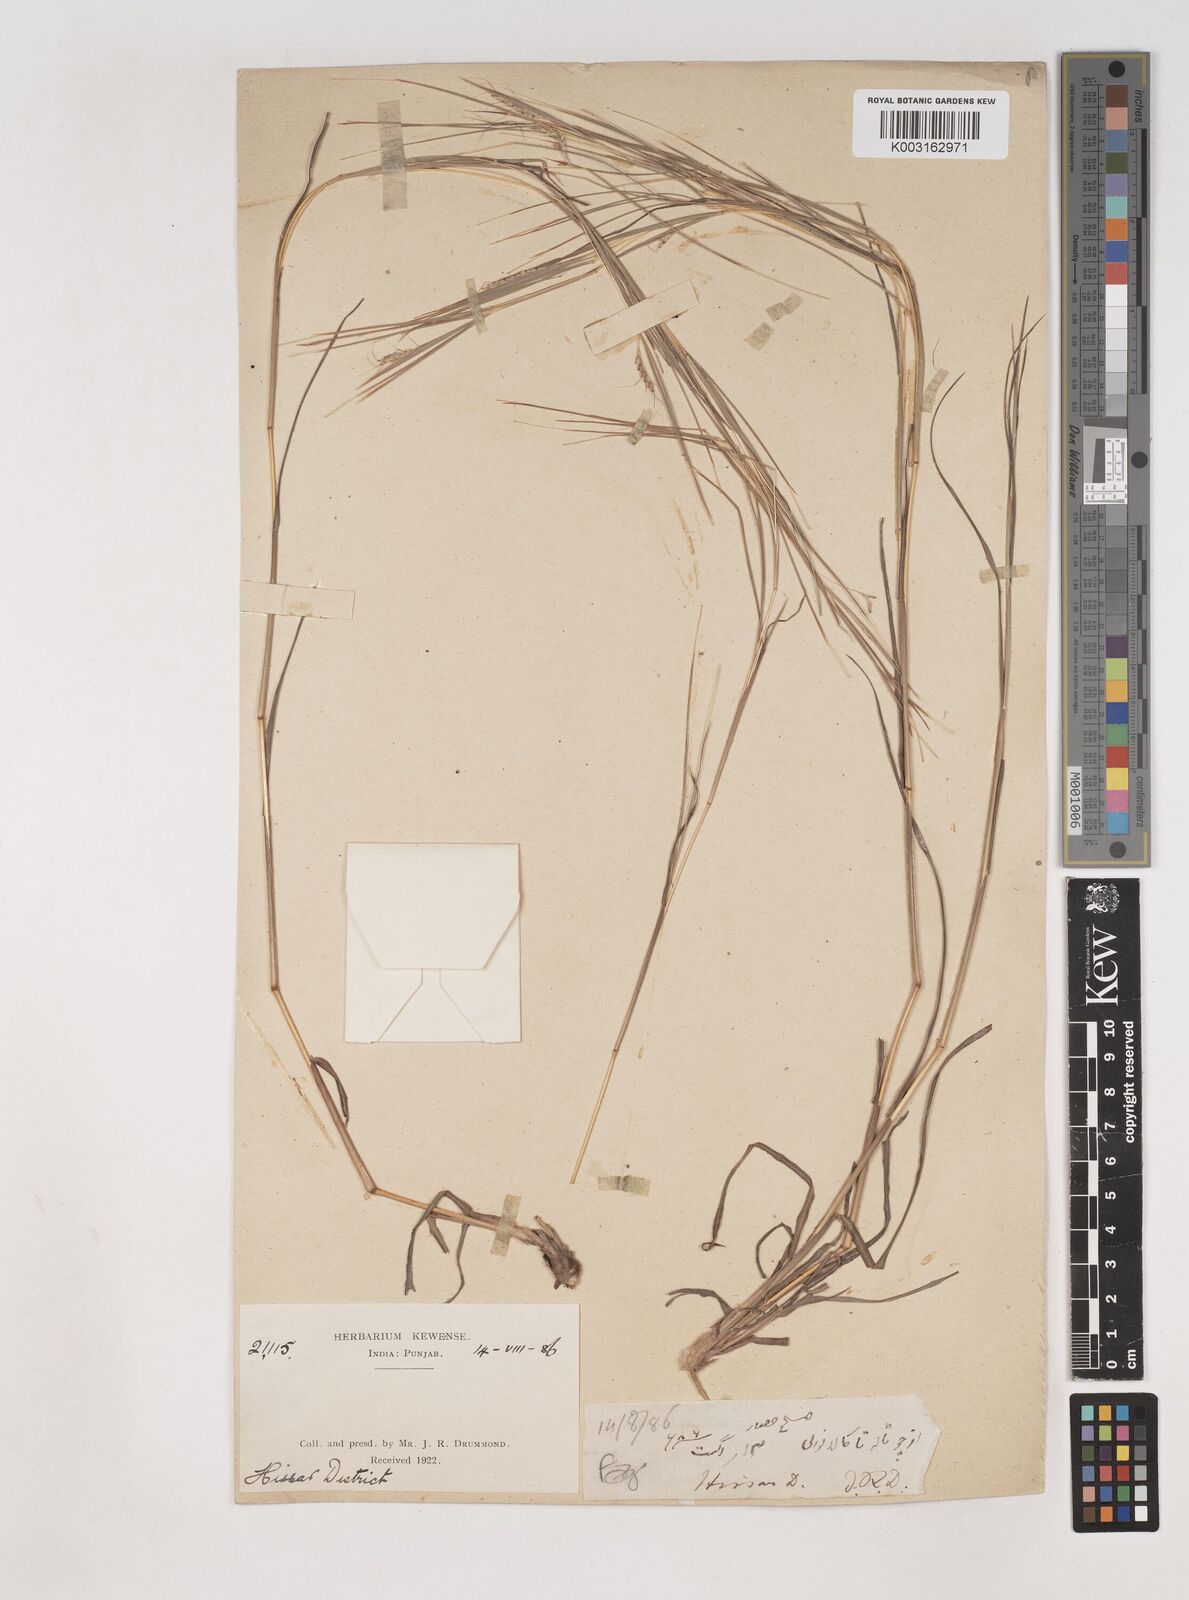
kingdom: Plantae
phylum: Tracheophyta
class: Liliopsida
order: Poales
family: Poaceae
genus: Dichanthium
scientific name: Dichanthium foveolatum
